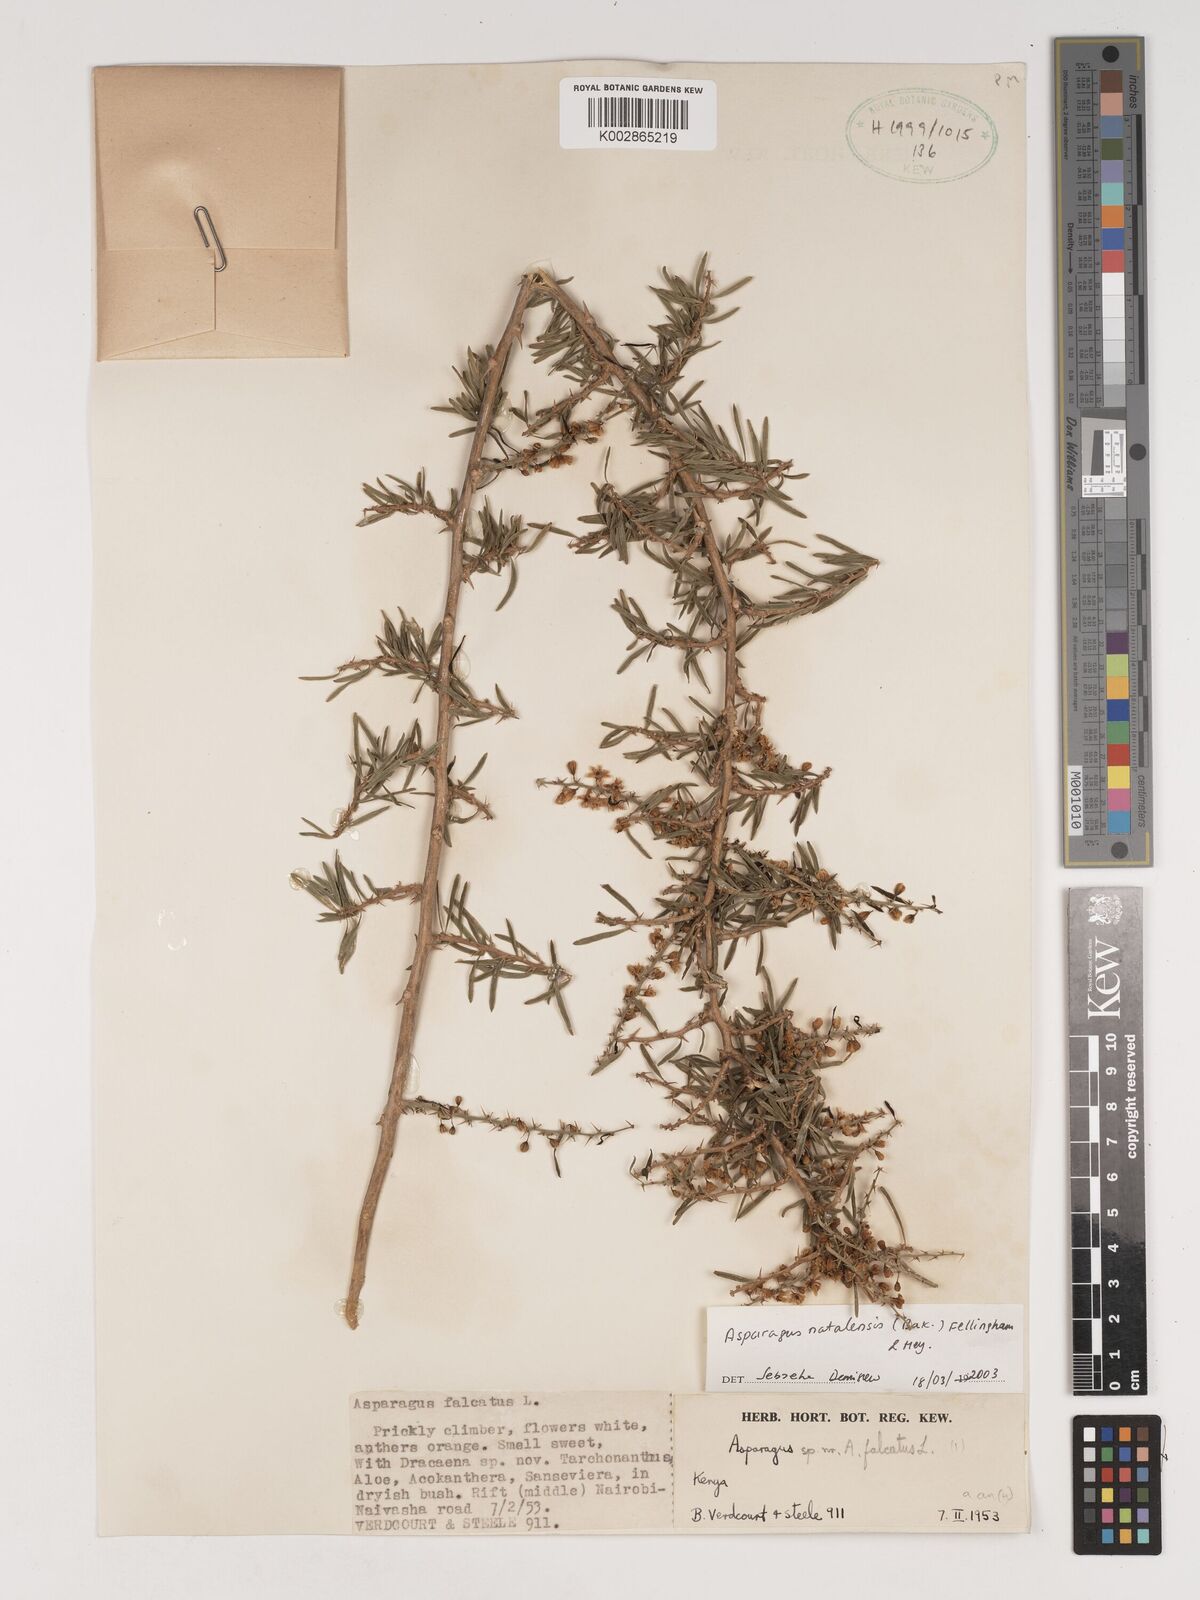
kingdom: Plantae
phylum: Tracheophyta
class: Liliopsida
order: Asparagales
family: Asparagaceae
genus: Asparagus
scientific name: Asparagus natalensis
